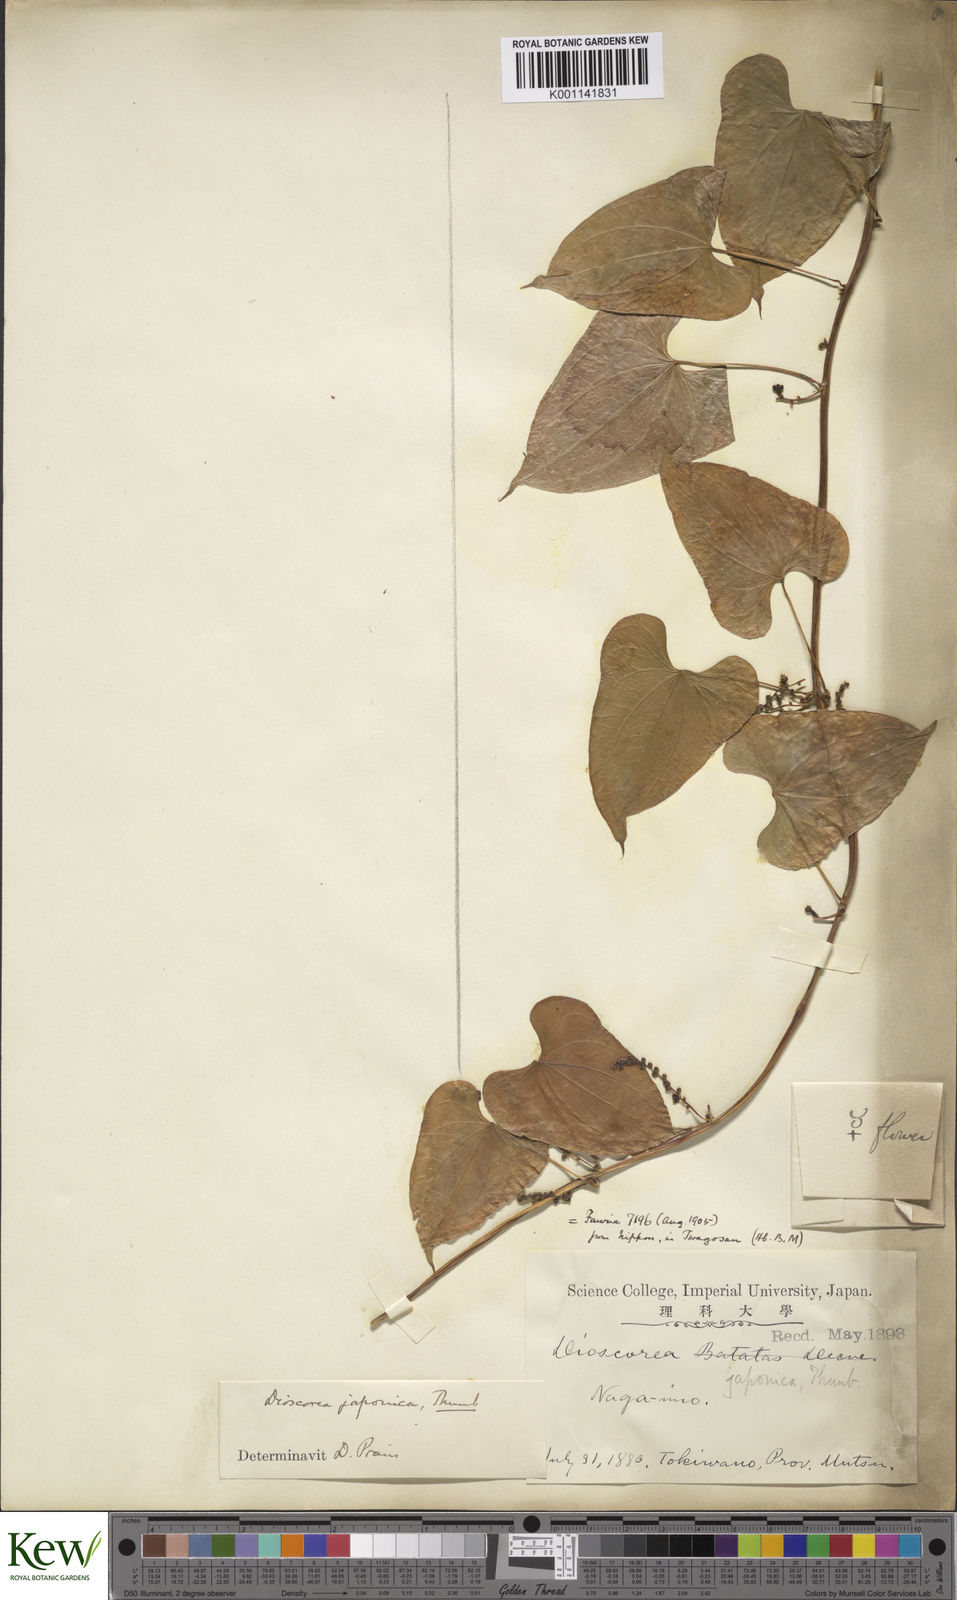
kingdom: Plantae
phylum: Tracheophyta
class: Liliopsida
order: Dioscoreales
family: Dioscoreaceae
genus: Dioscorea
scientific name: Dioscorea japonica
